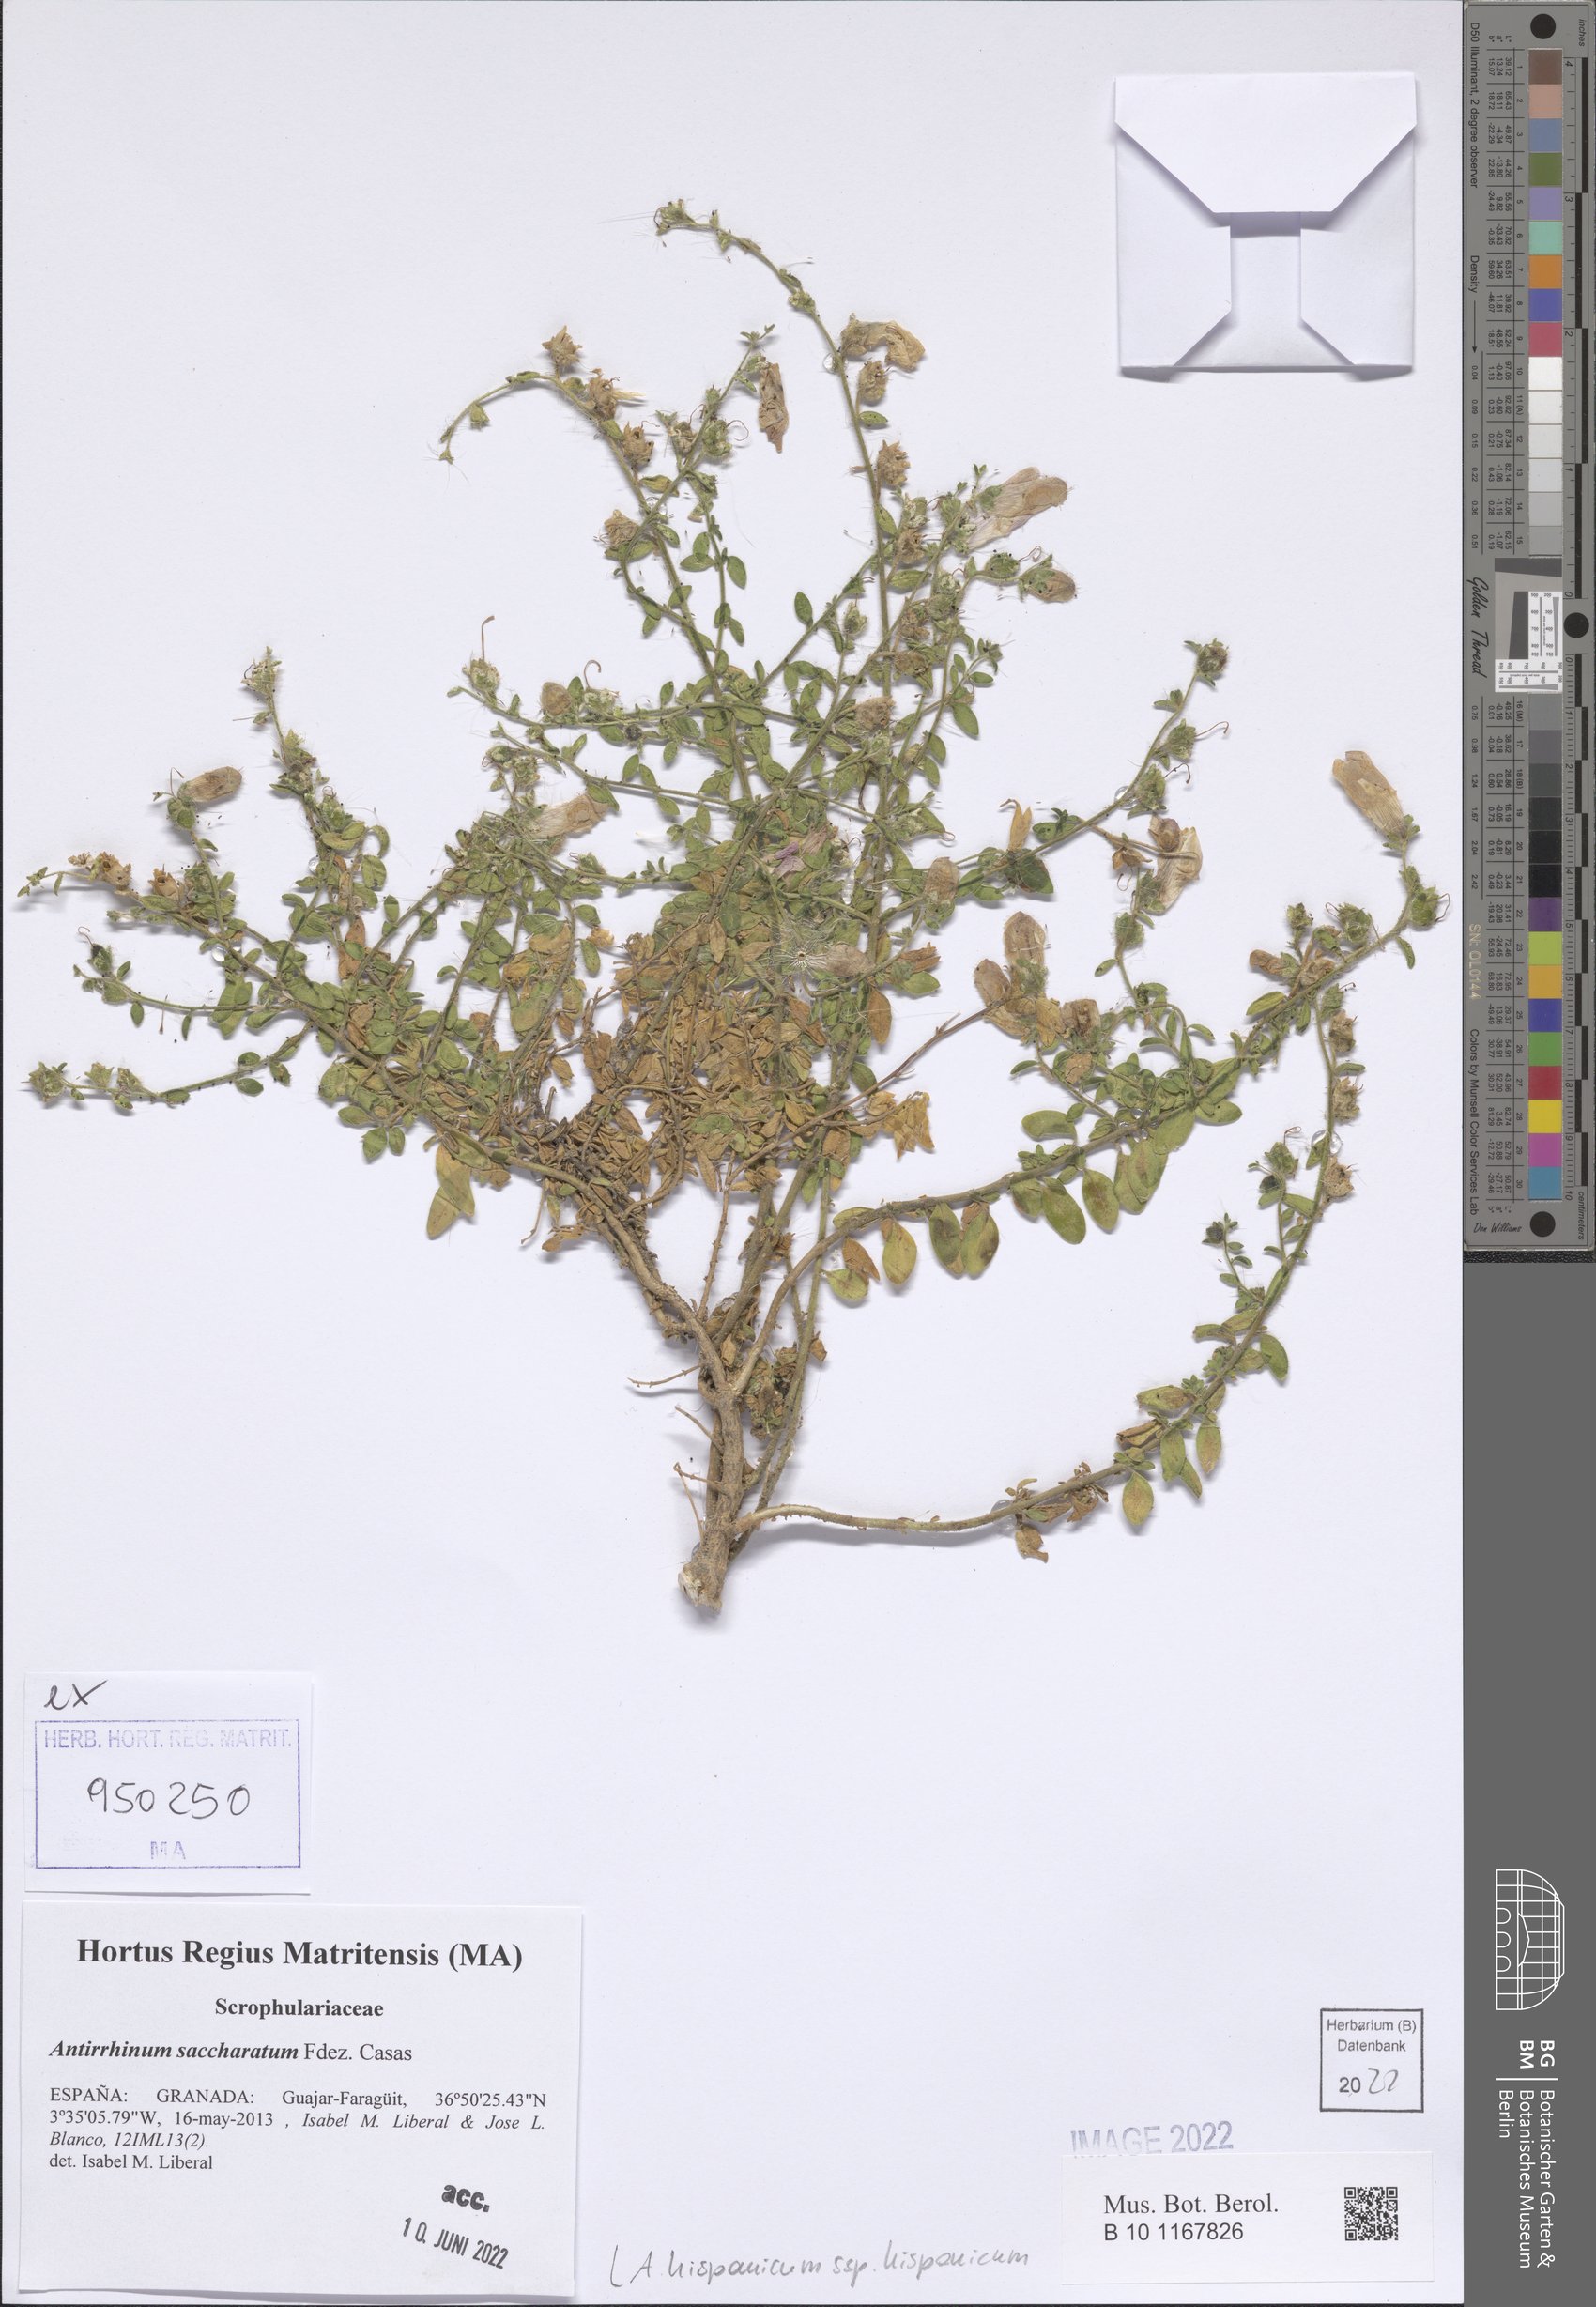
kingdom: Plantae
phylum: Tracheophyta
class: Magnoliopsida
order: Lamiales
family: Plantaginaceae
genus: Antirrhinum
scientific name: Antirrhinum hispanicum
